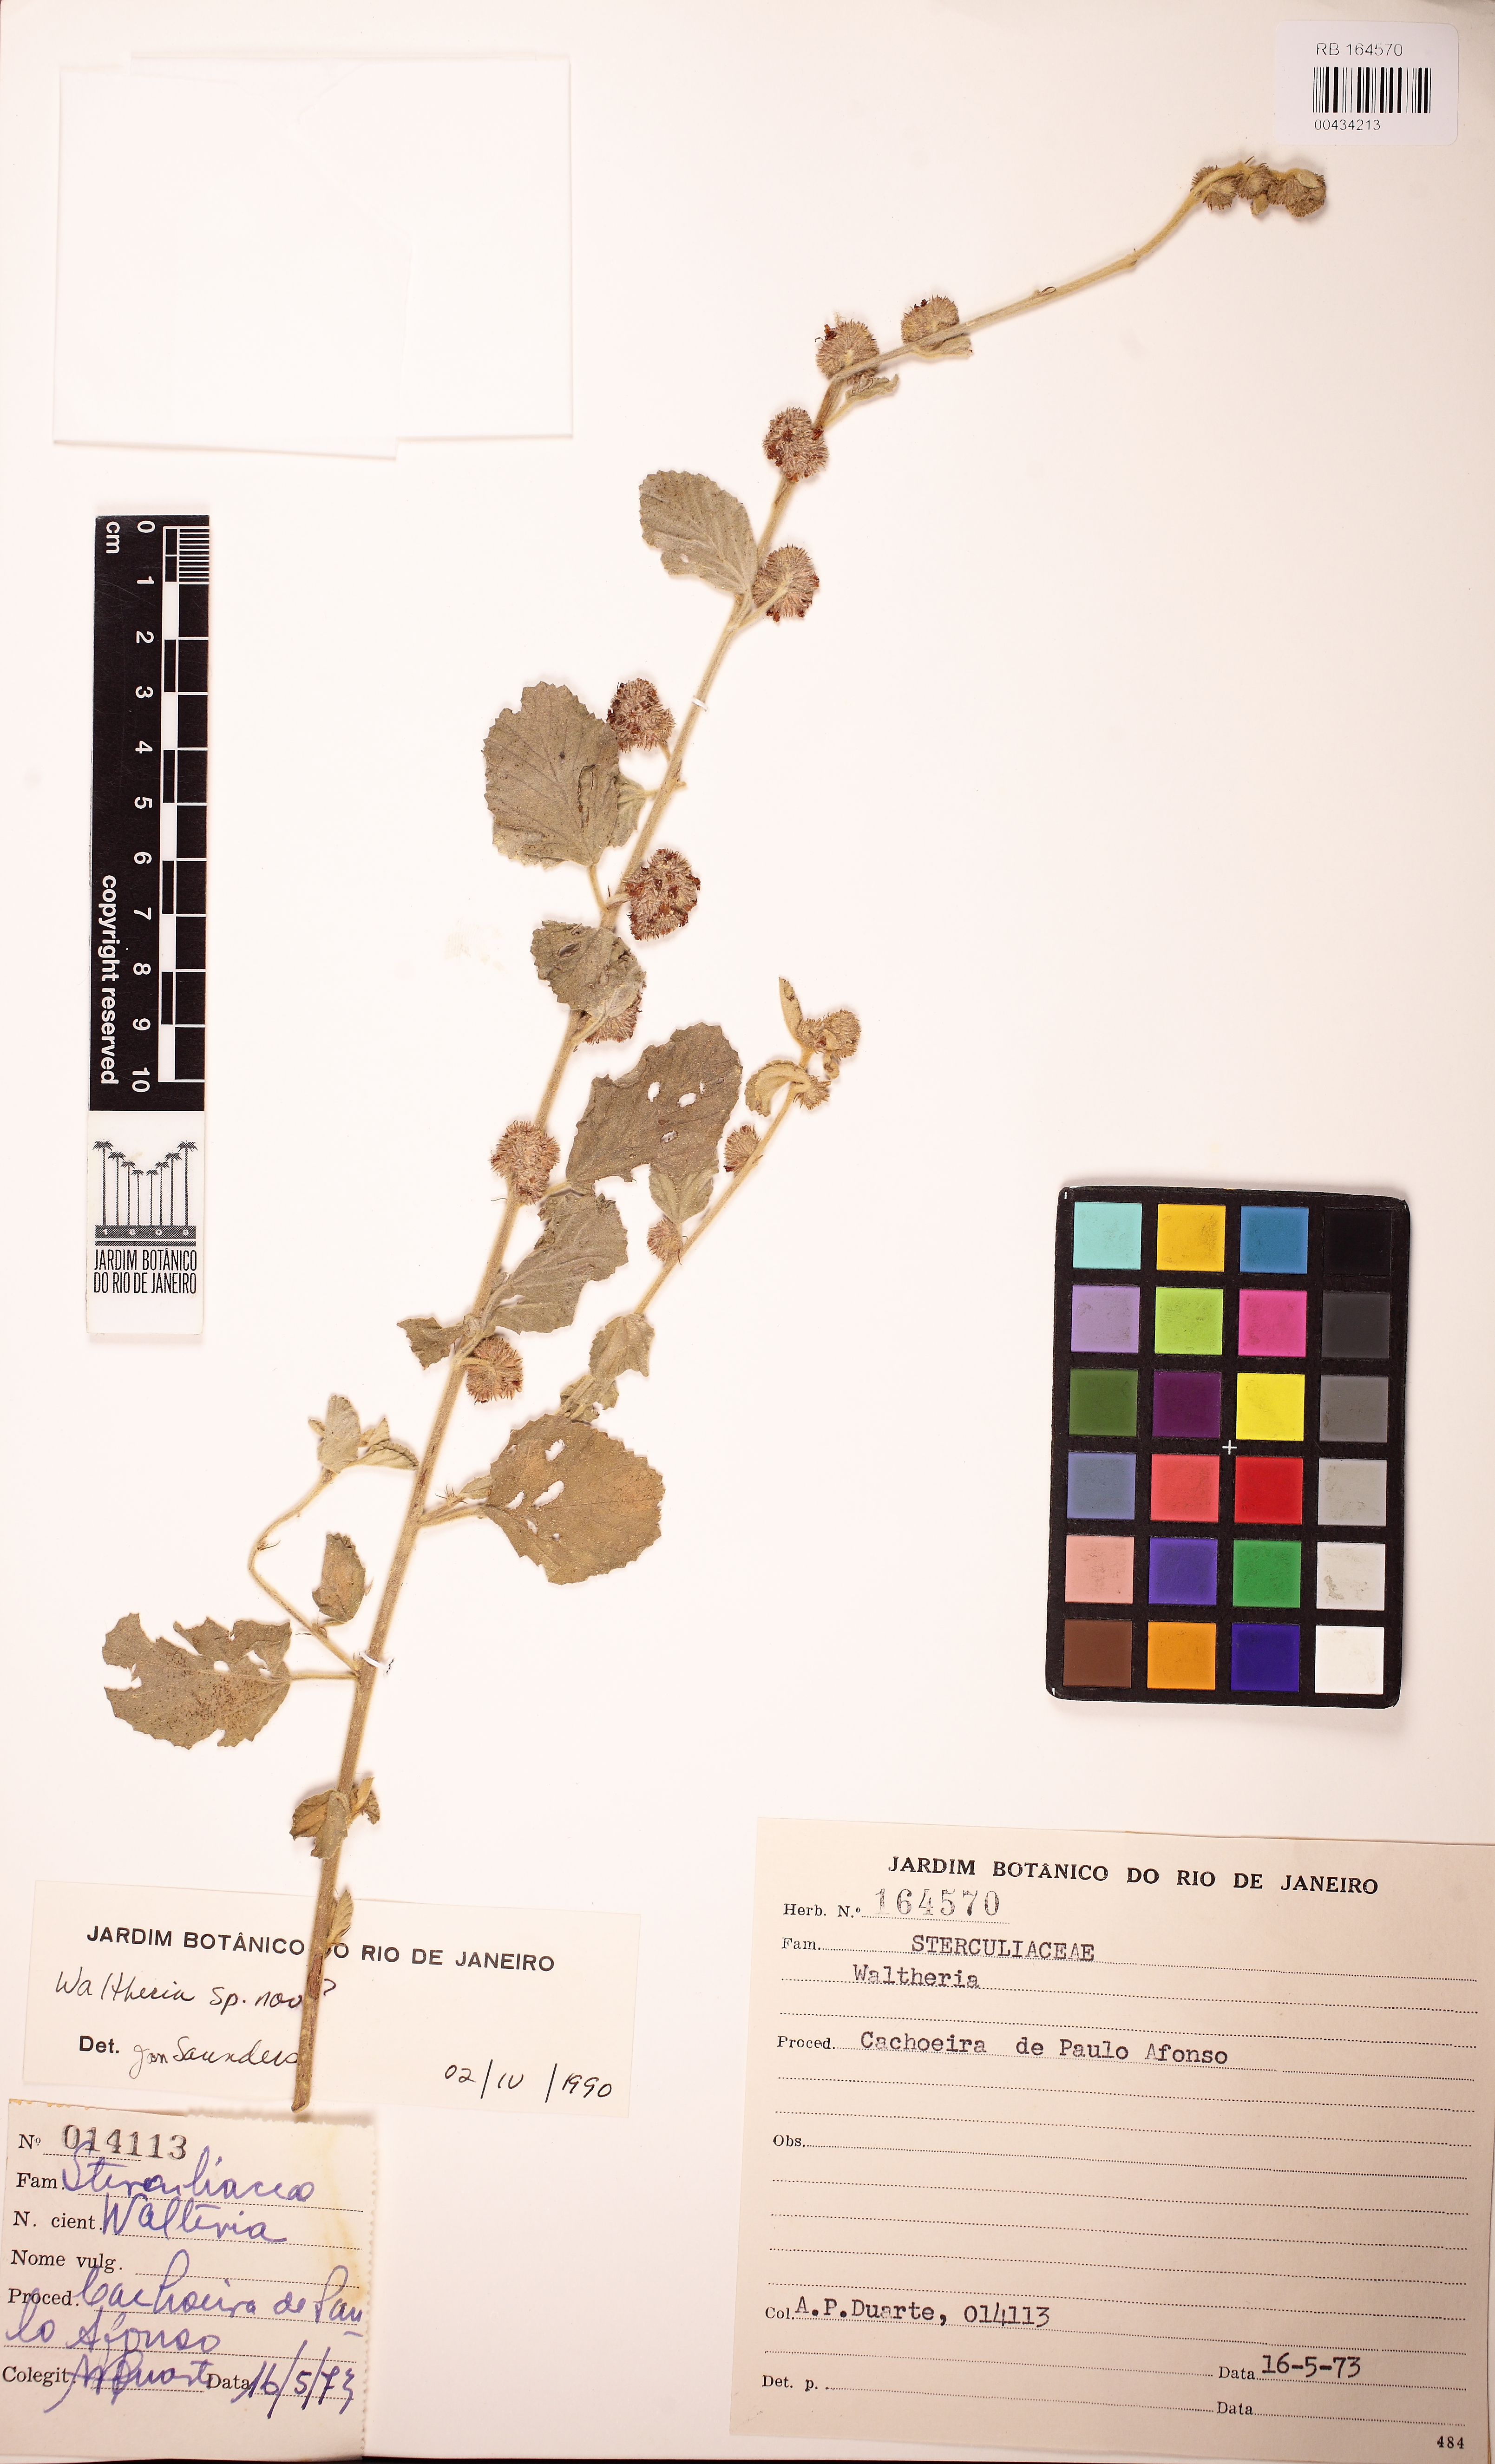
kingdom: Plantae
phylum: Tracheophyta
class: Magnoliopsida
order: Malvales
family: Malvaceae
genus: Waltheria
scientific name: Waltheria rotundifolia
